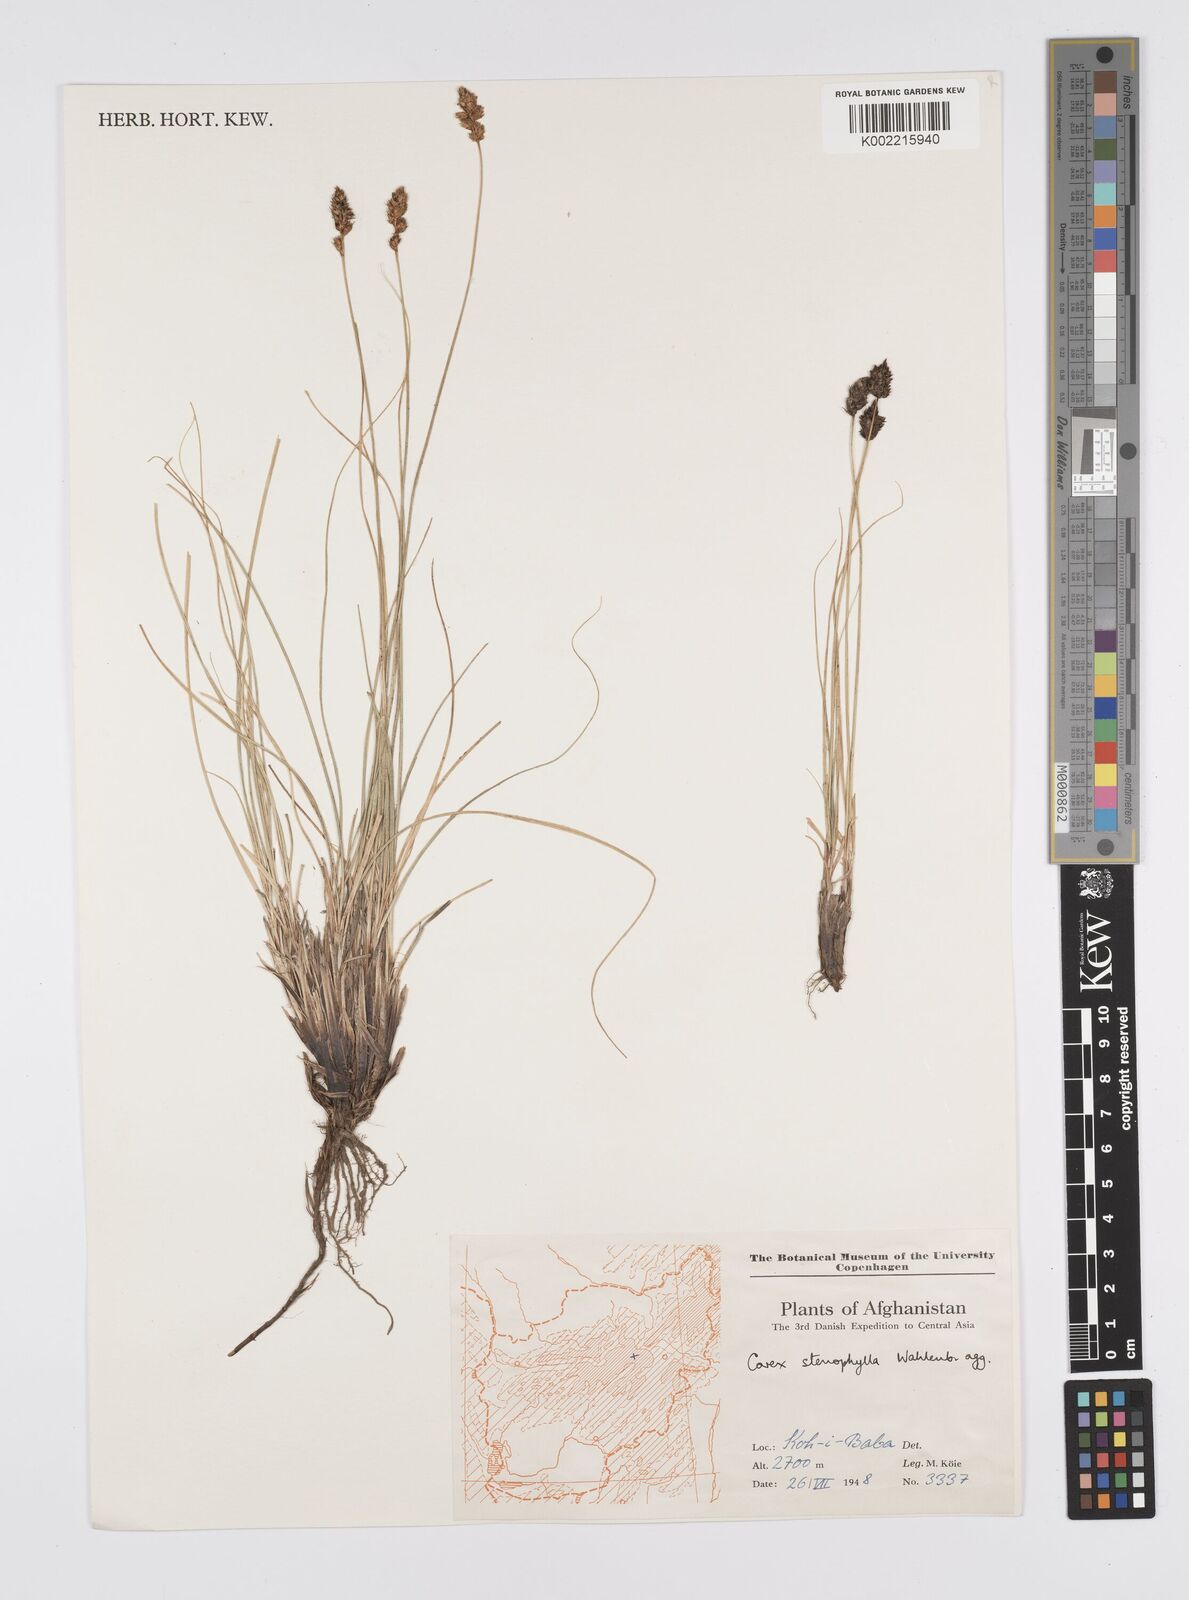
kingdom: Plantae
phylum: Tracheophyta
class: Liliopsida
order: Poales
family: Cyperaceae
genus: Carex
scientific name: Carex stenophylla
